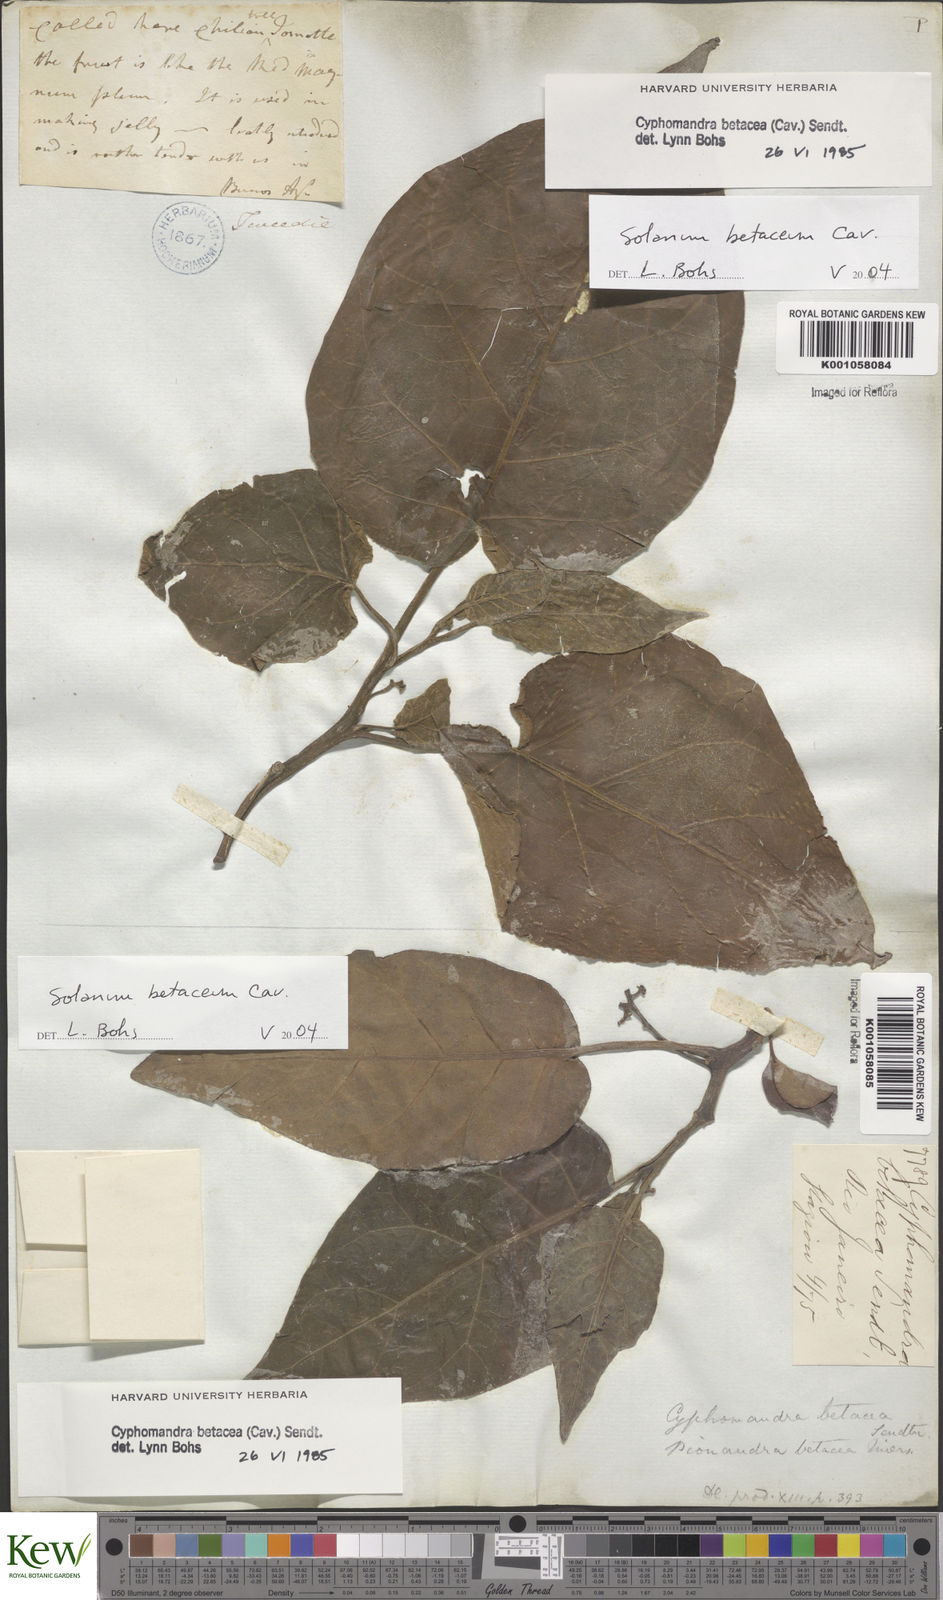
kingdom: Plantae
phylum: Tracheophyta
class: Magnoliopsida
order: Solanales
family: Solanaceae
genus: Solanum
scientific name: Solanum betaceum
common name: Tamarillo
